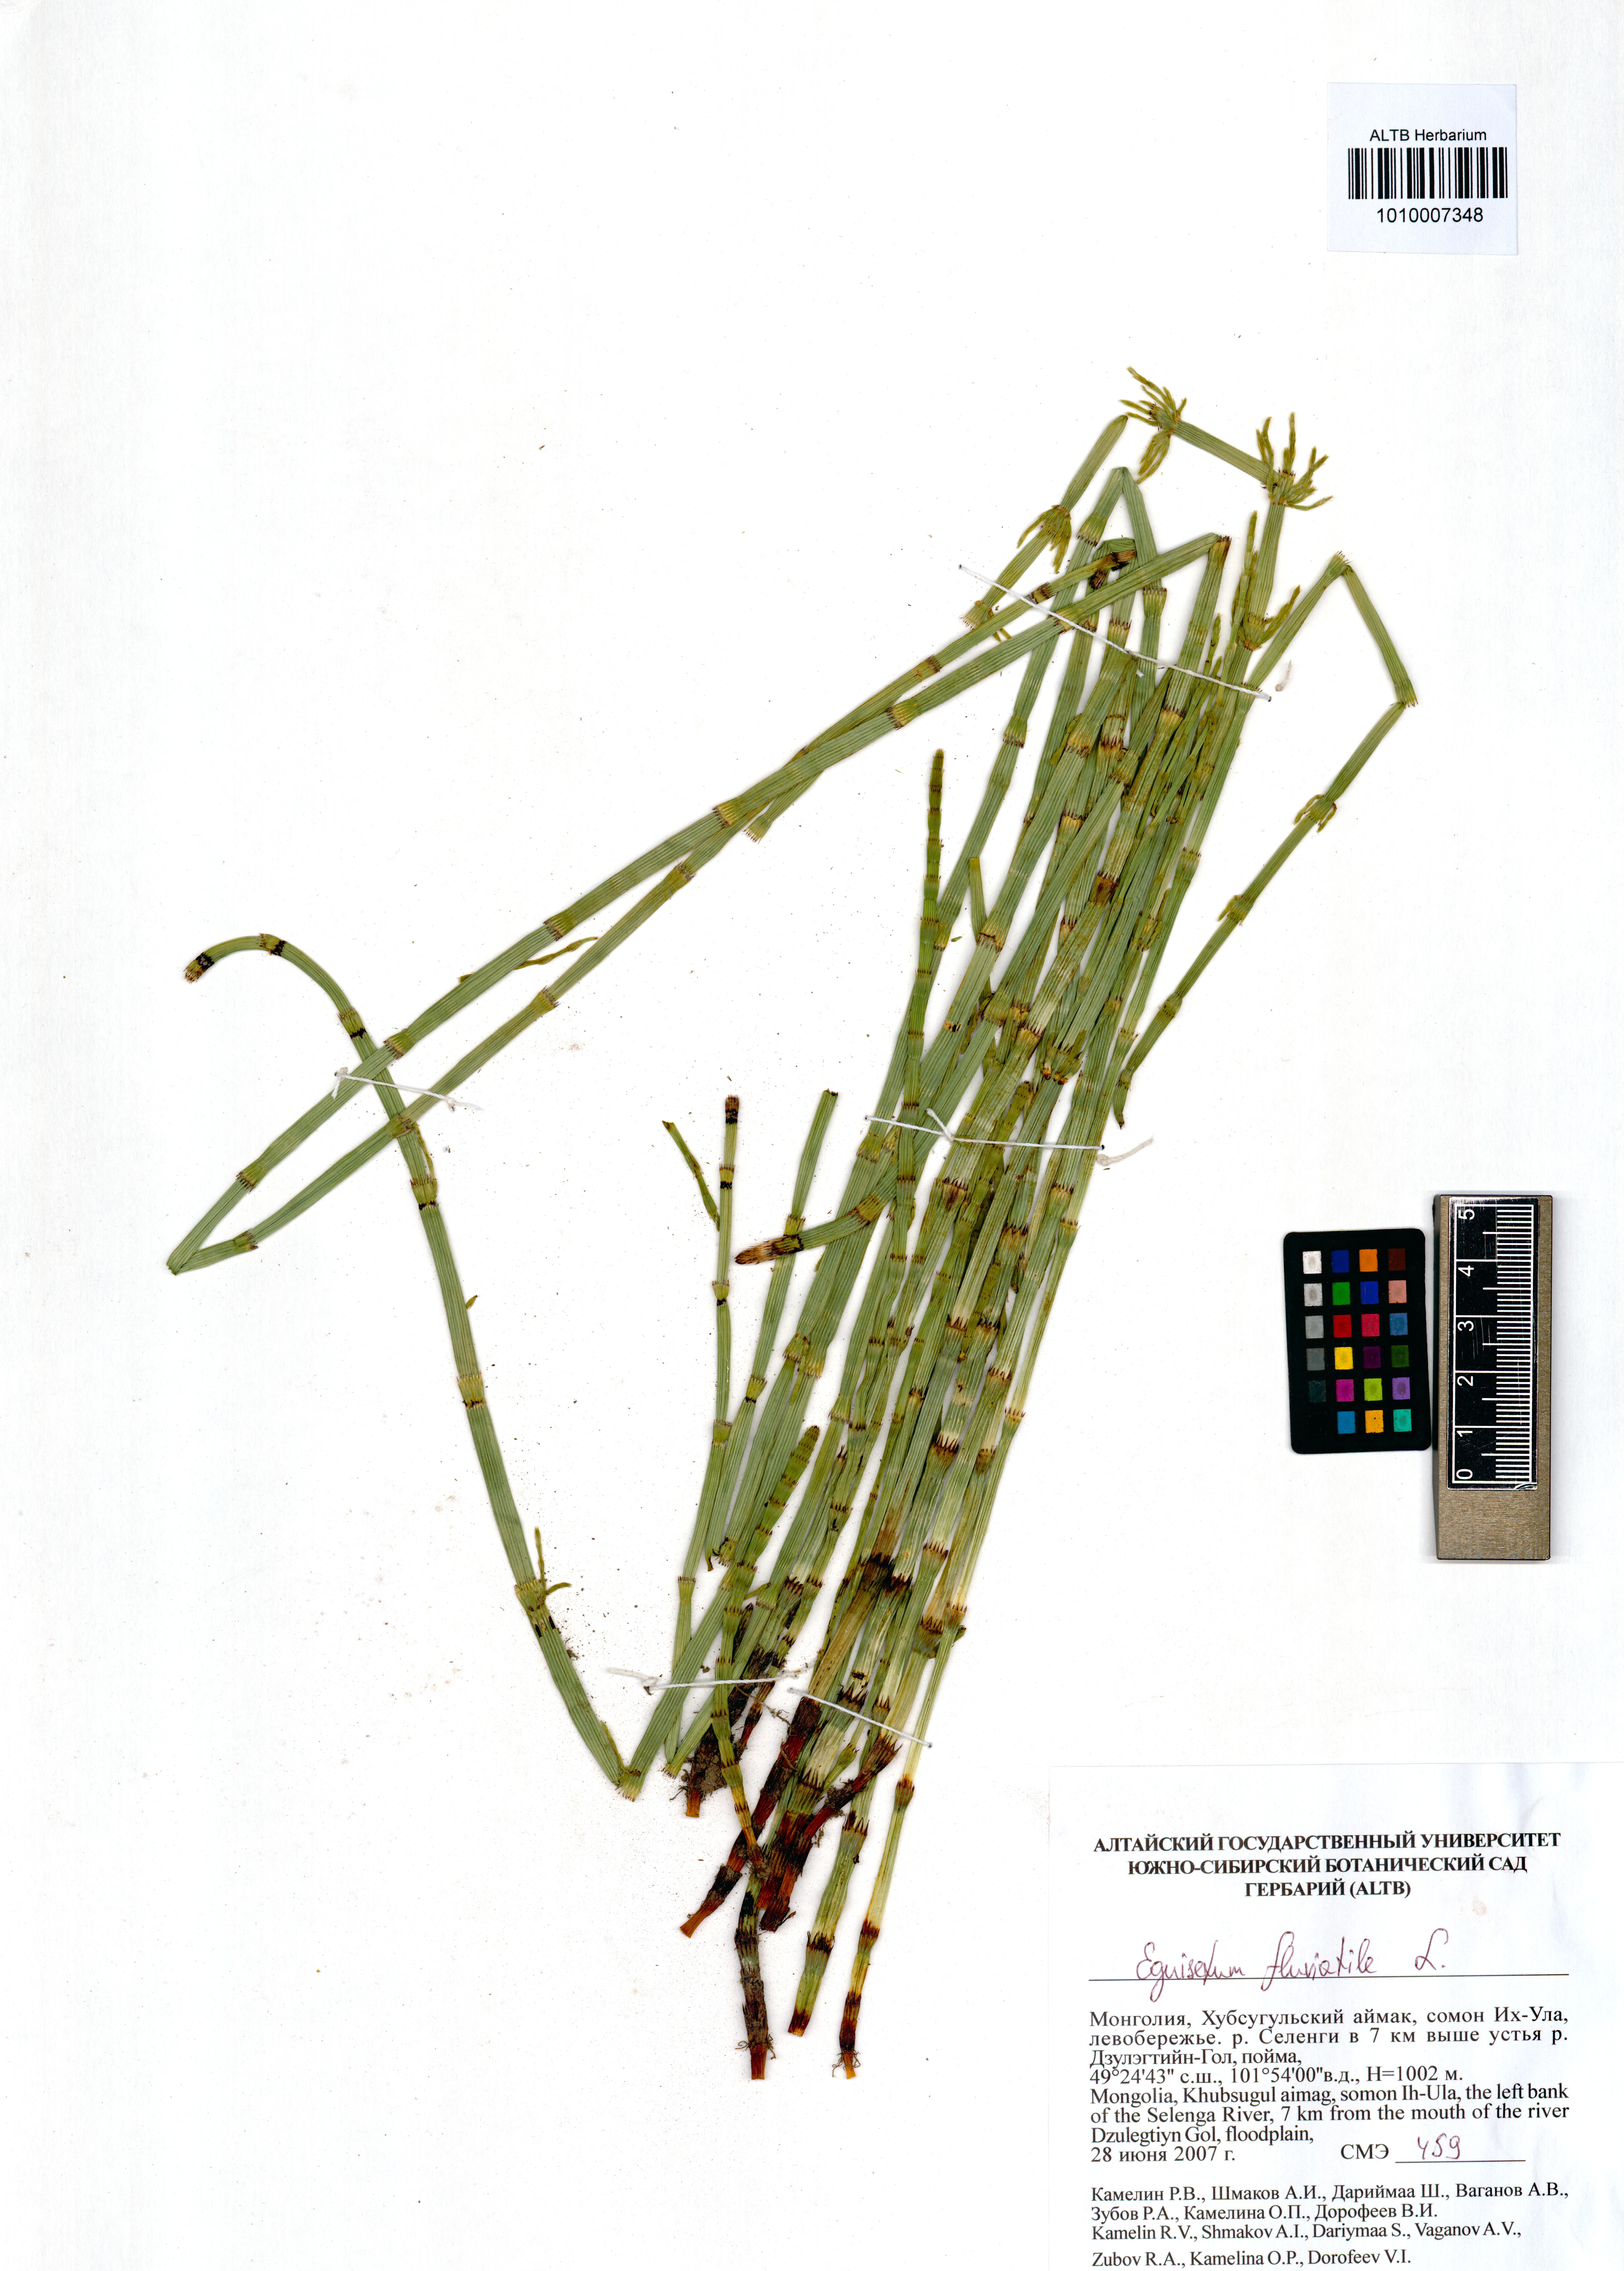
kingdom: Plantae
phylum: Tracheophyta
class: Polypodiopsida
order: Equisetales
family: Equisetaceae
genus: Equisetum
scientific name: Equisetum fluviatile
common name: Water horsetail
